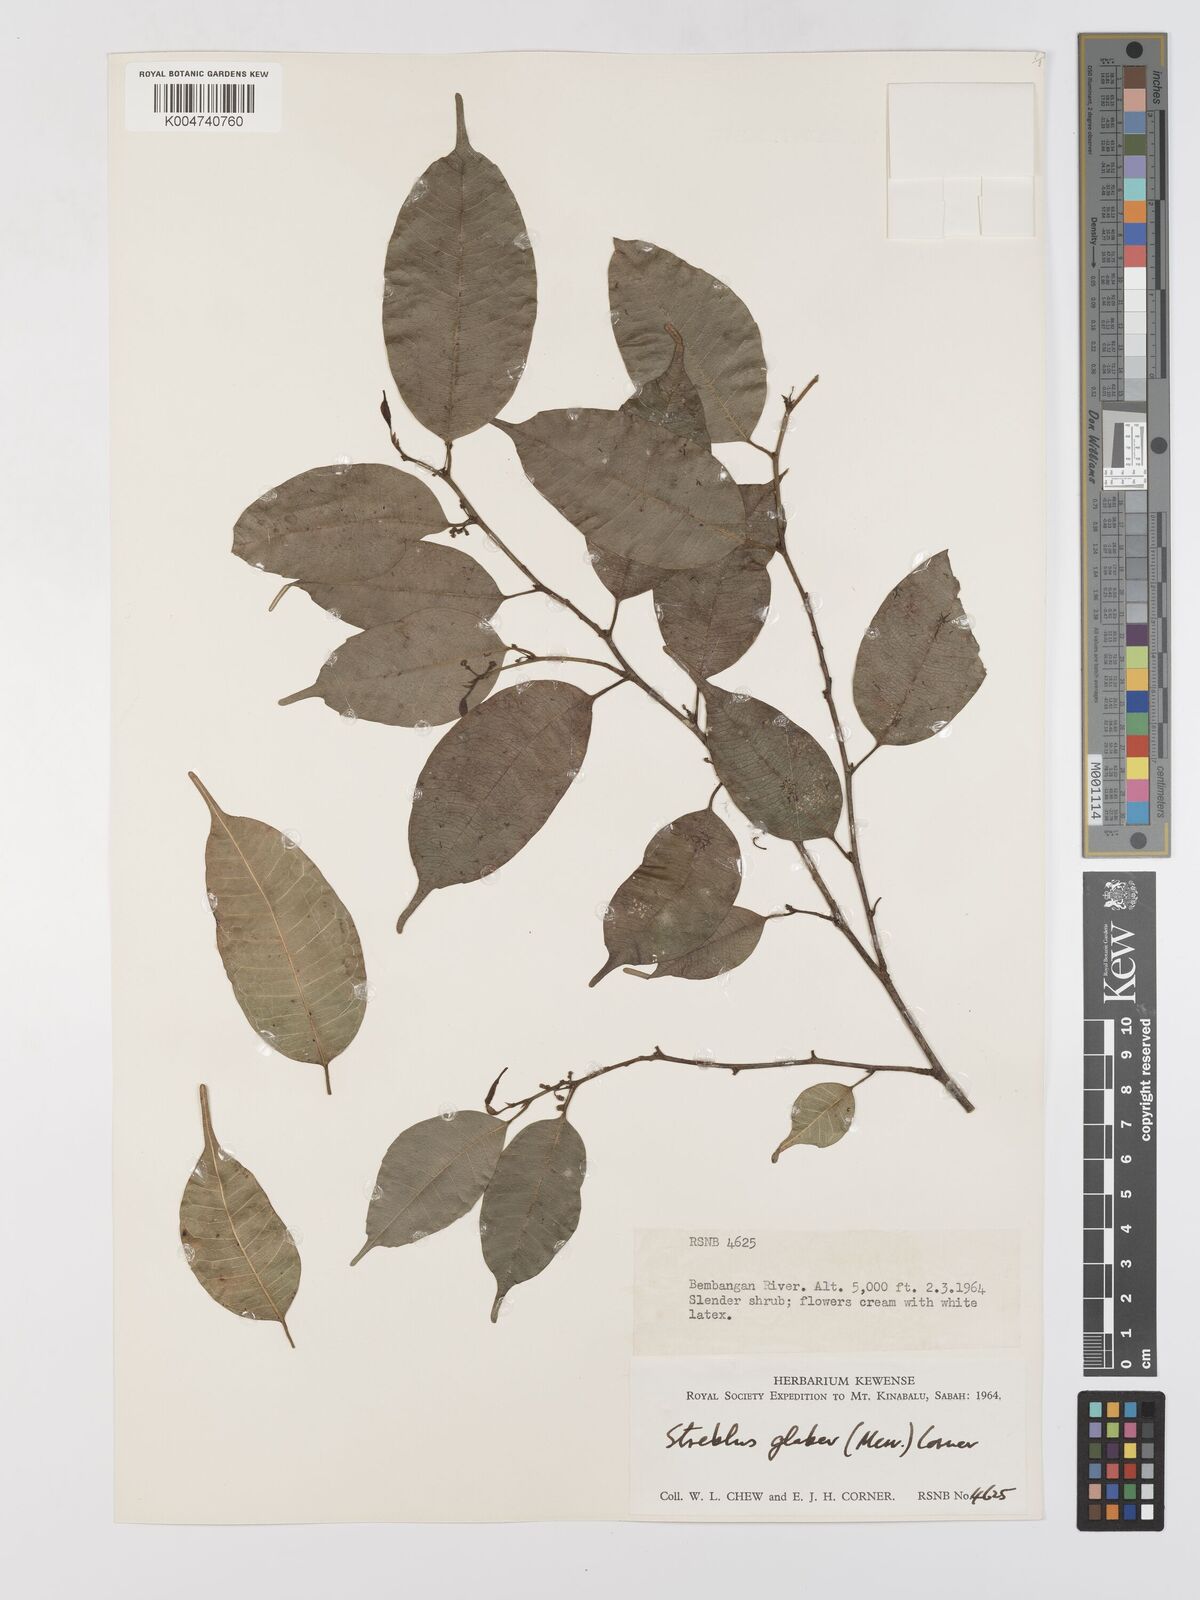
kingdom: Plantae
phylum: Tracheophyta
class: Magnoliopsida
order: Rosales
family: Moraceae
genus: Paratrophis
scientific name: Paratrophis glabra
